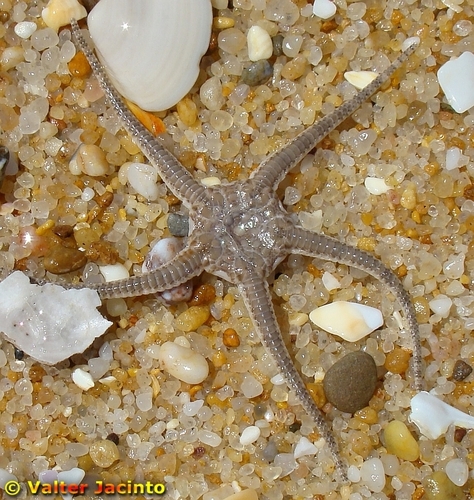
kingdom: Animalia
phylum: Echinodermata
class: Ophiuroidea
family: Ophiuridae
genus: Ophiura
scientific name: Ophiura
